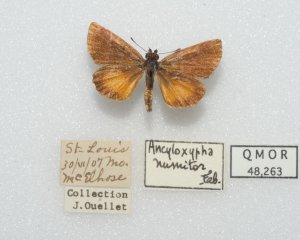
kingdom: Animalia
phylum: Arthropoda
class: Insecta
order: Lepidoptera
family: Hesperiidae
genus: Ancyloxypha
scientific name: Ancyloxypha numitor
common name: Least Skipper
